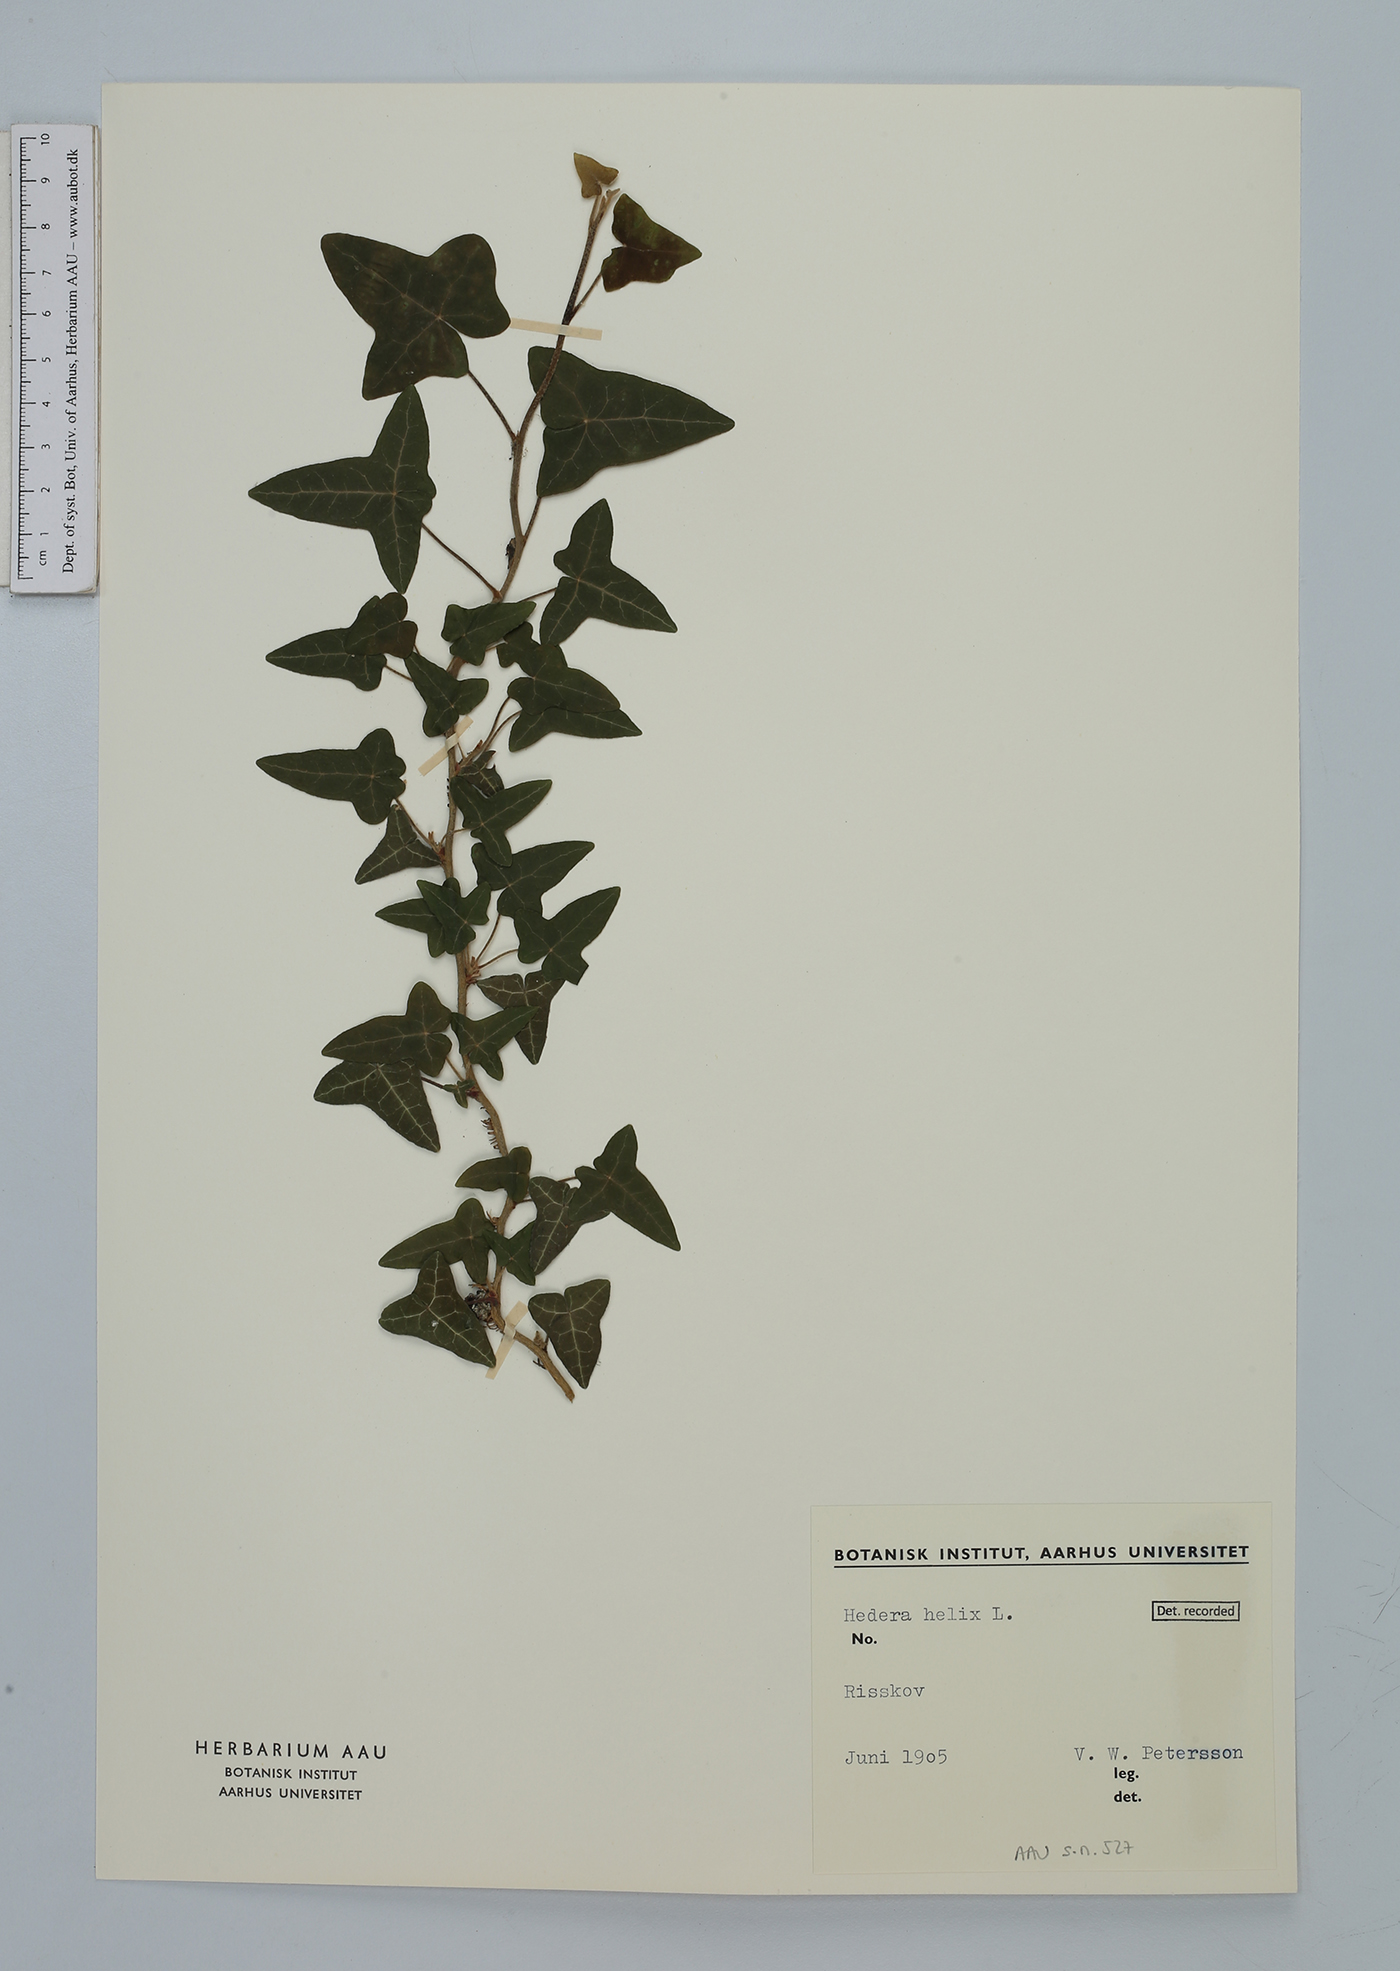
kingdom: Plantae
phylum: Tracheophyta
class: Magnoliopsida
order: Apiales
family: Araliaceae
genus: Hedera
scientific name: Hedera helix
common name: Ivy
